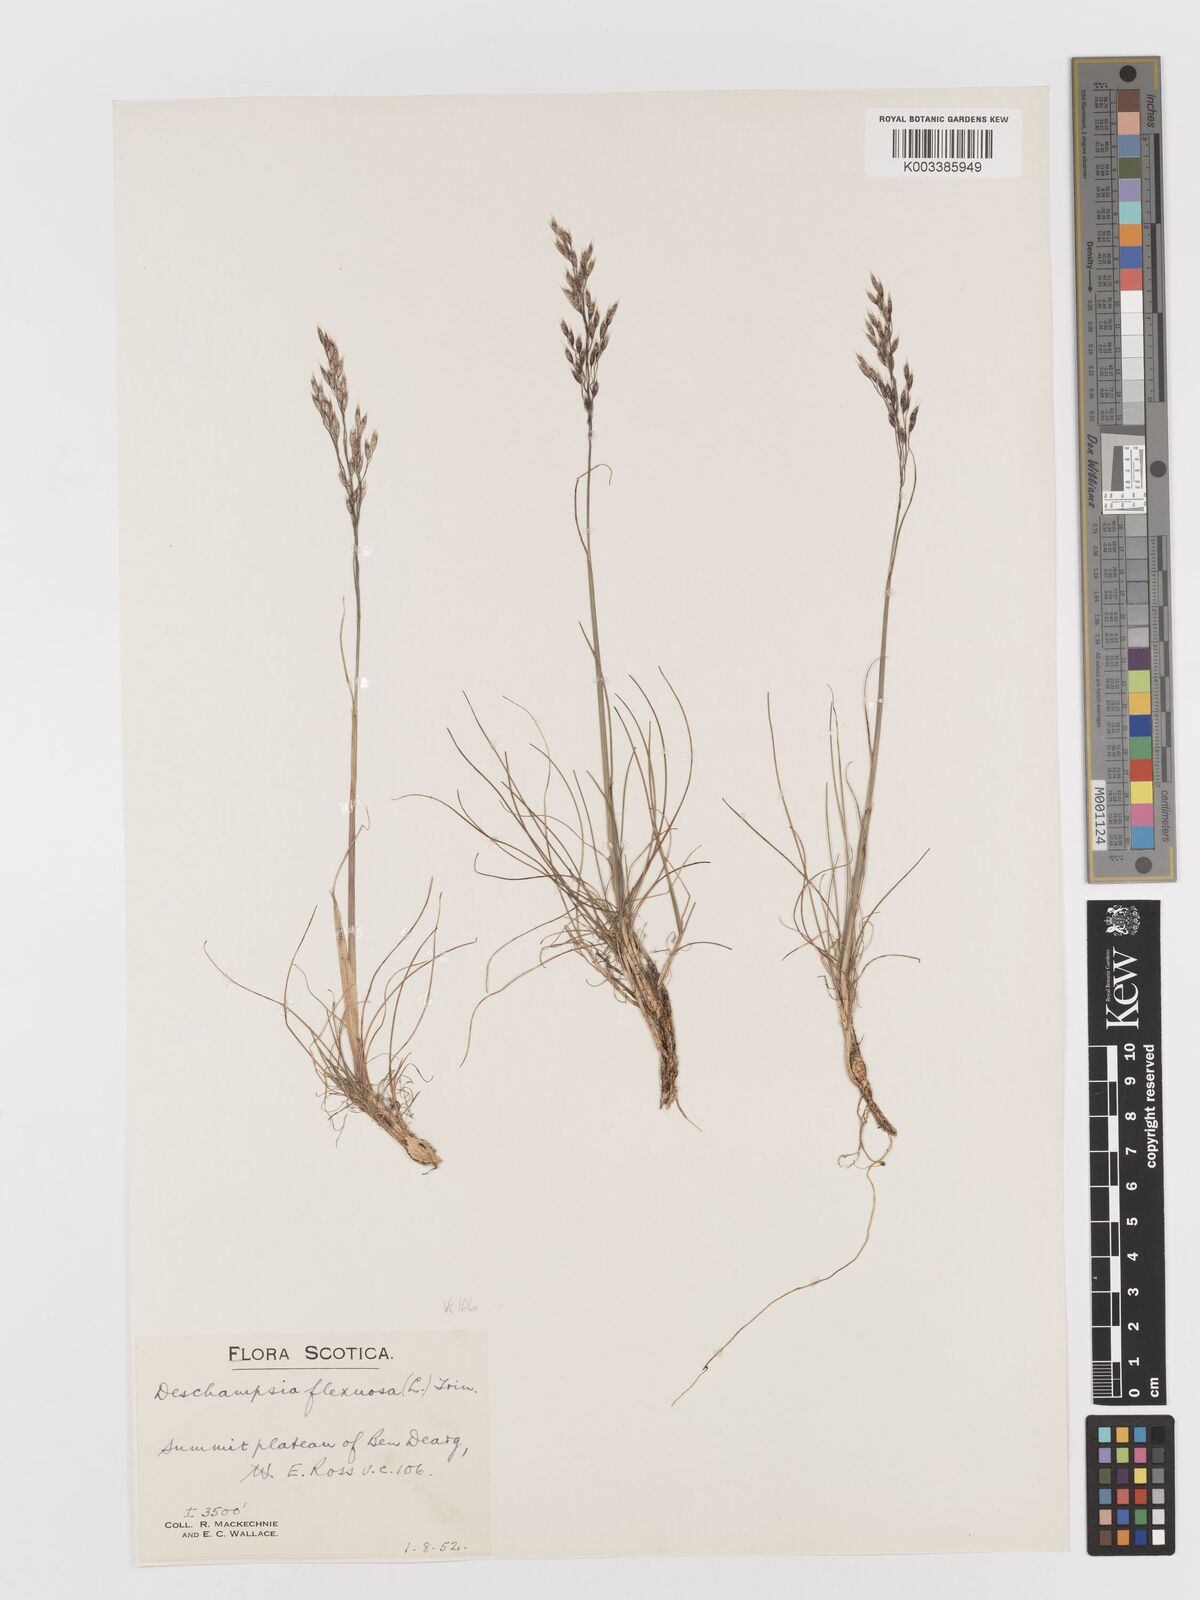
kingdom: Plantae
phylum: Tracheophyta
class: Liliopsida
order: Poales
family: Poaceae
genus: Avenella
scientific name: Avenella flexuosa
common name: Wavy hairgrass
